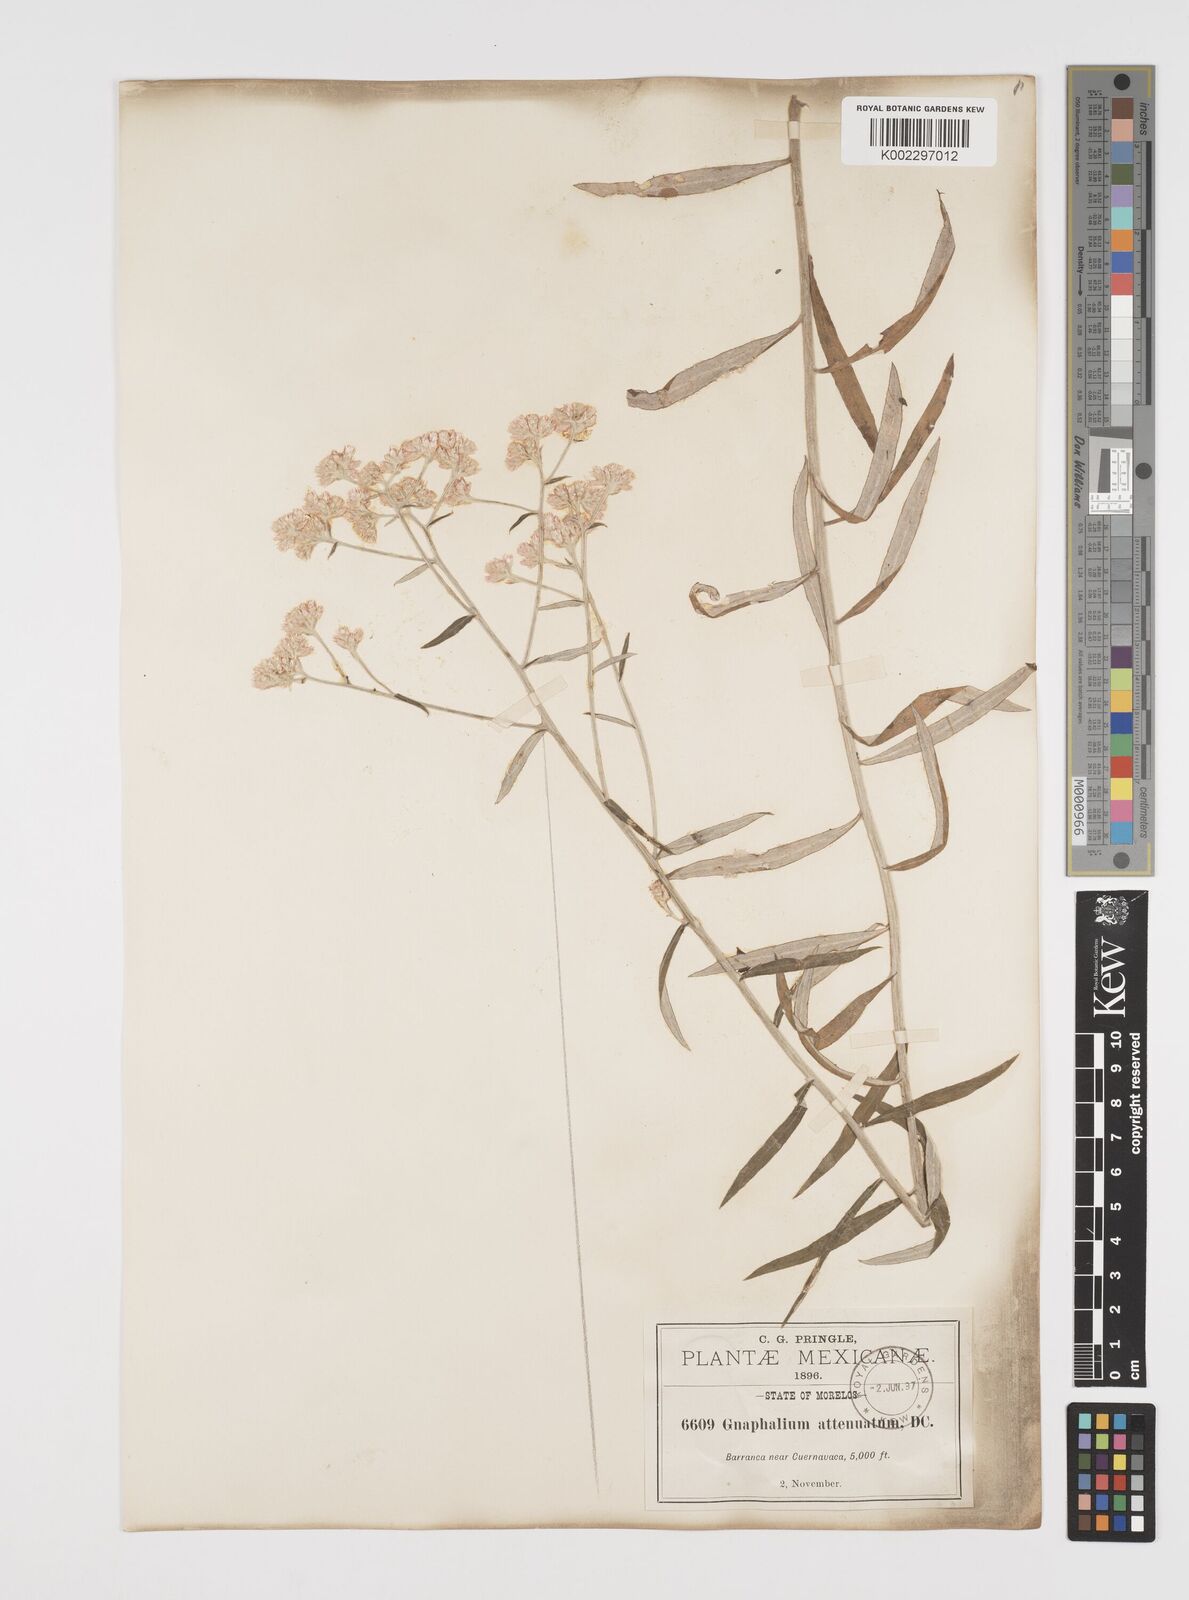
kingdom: Plantae
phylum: Tracheophyta
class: Magnoliopsida
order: Asterales
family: Asteraceae
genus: Pseudognaphalium
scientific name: Pseudognaphalium attenuatum
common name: Tapered cudweed
